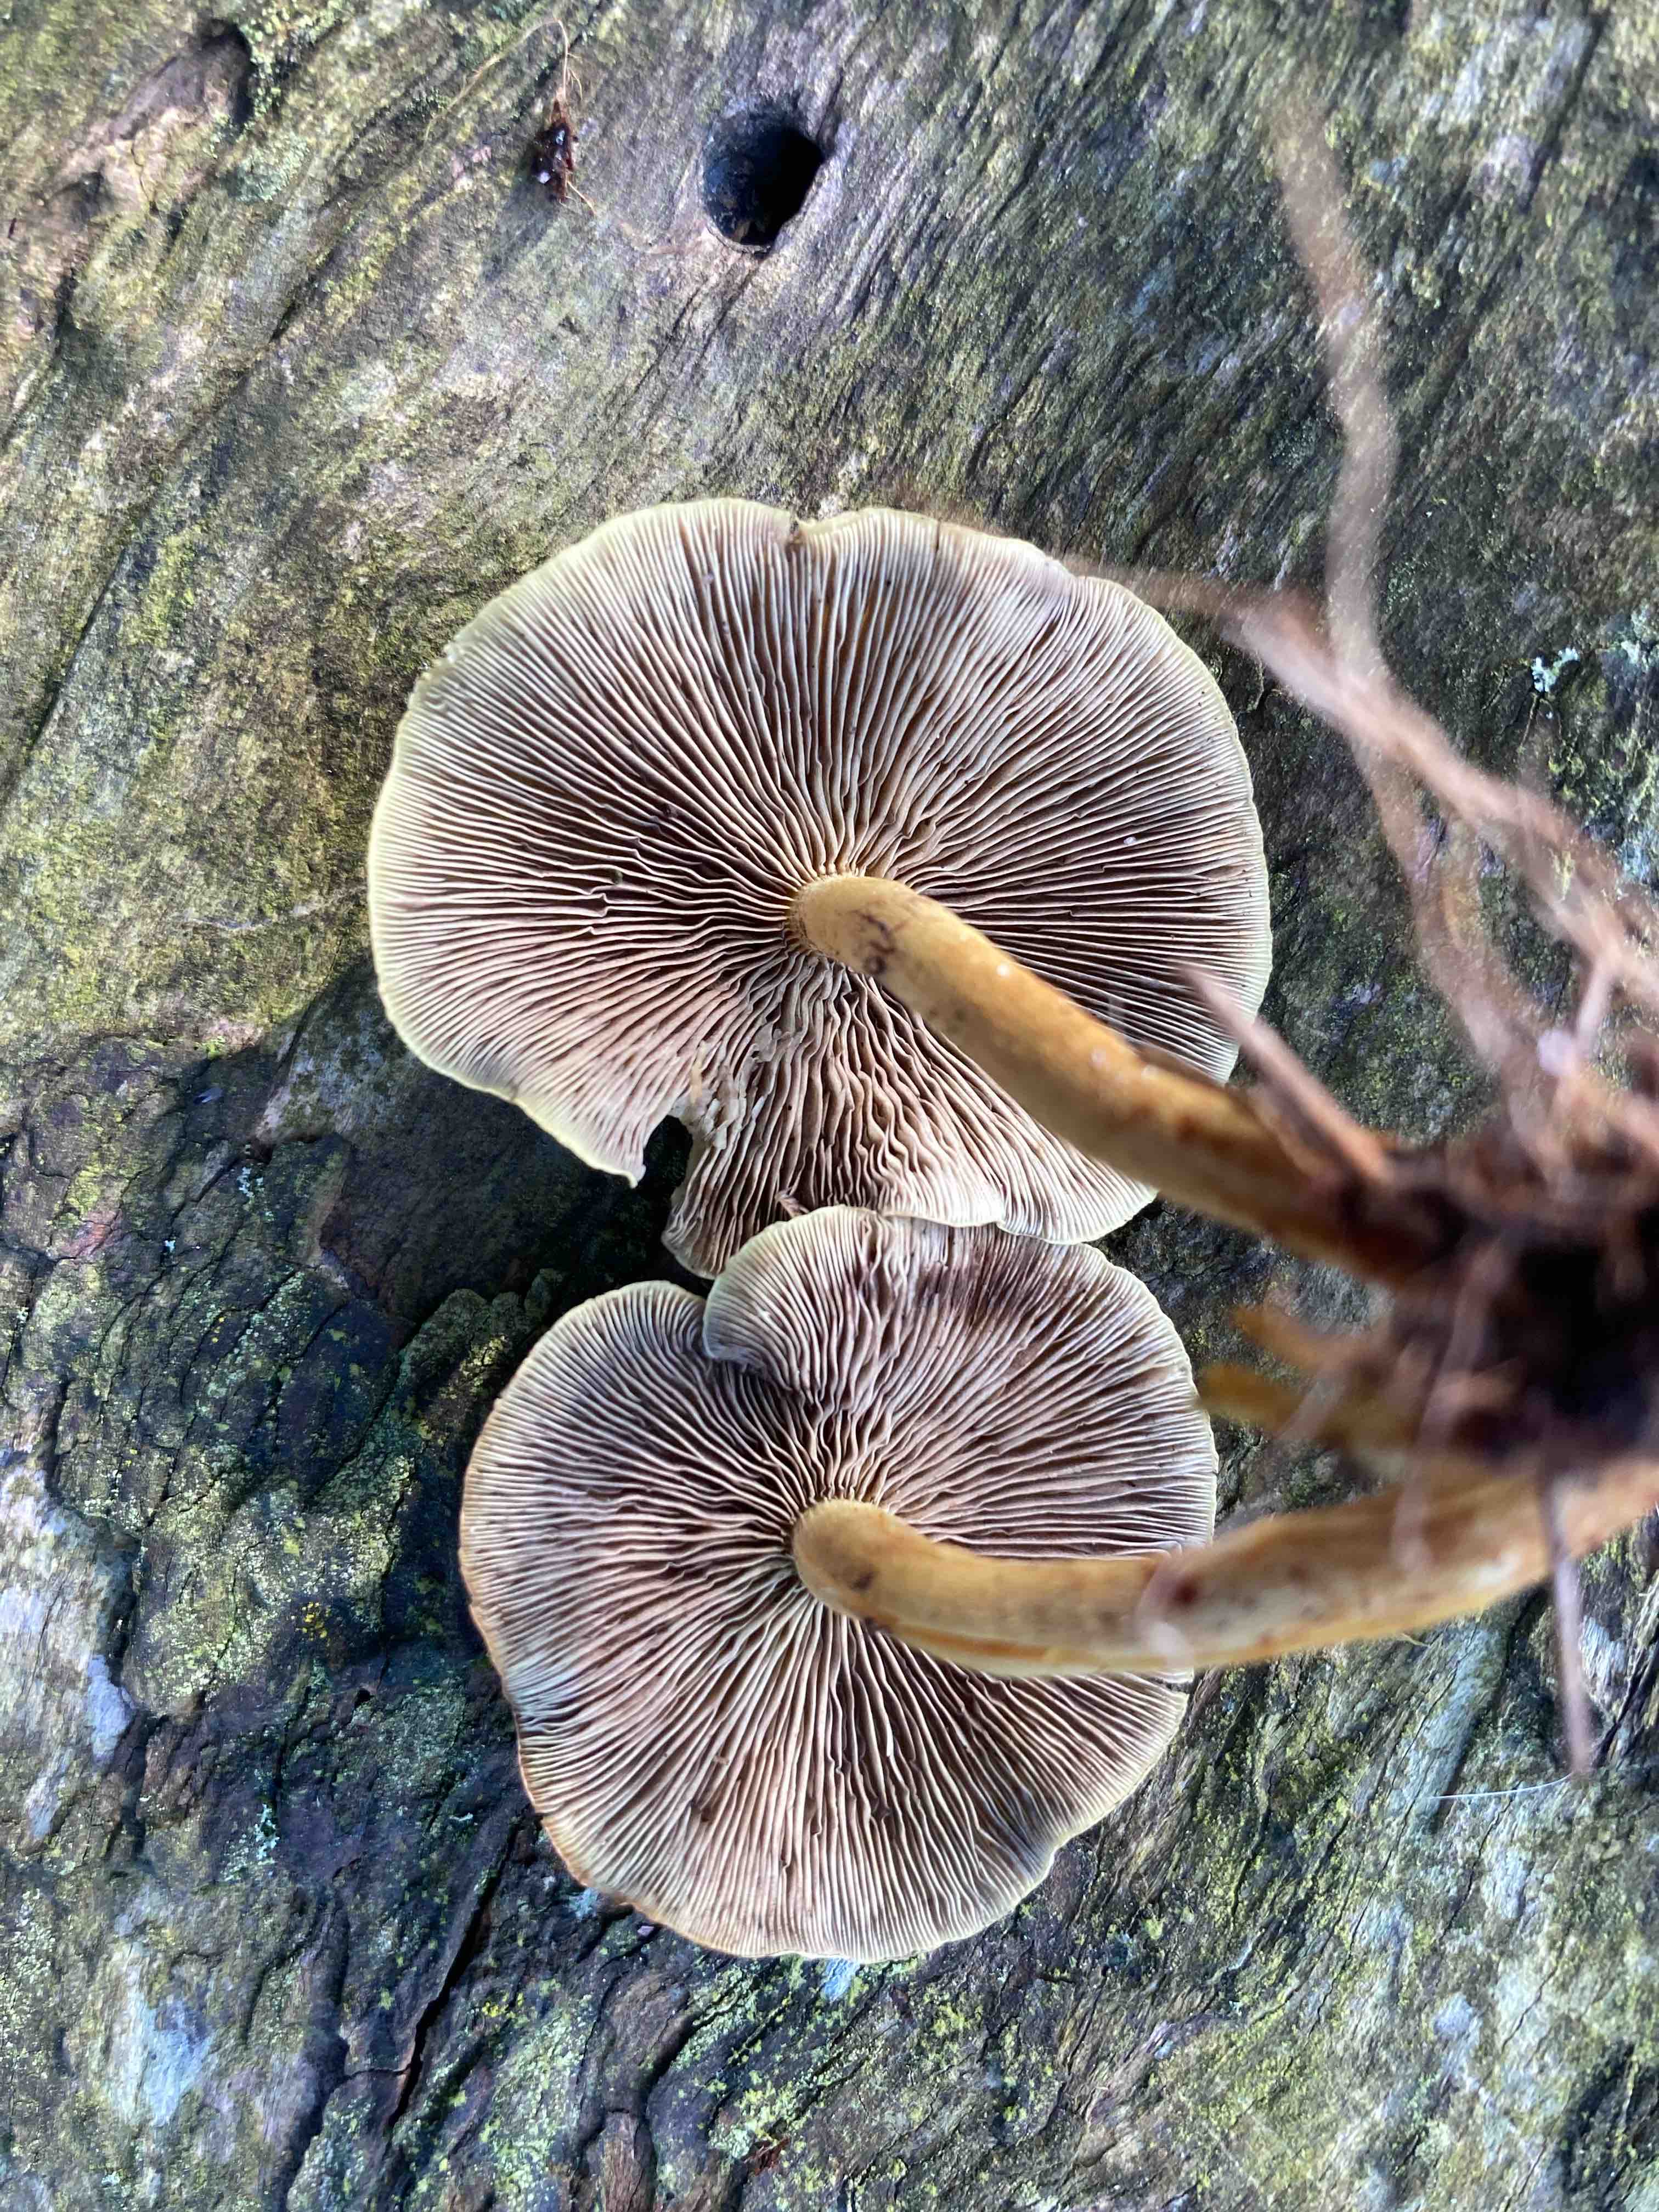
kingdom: Fungi
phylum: Basidiomycota
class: Agaricomycetes
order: Agaricales
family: Strophariaceae
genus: Hypholoma
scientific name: Hypholoma fasciculare
